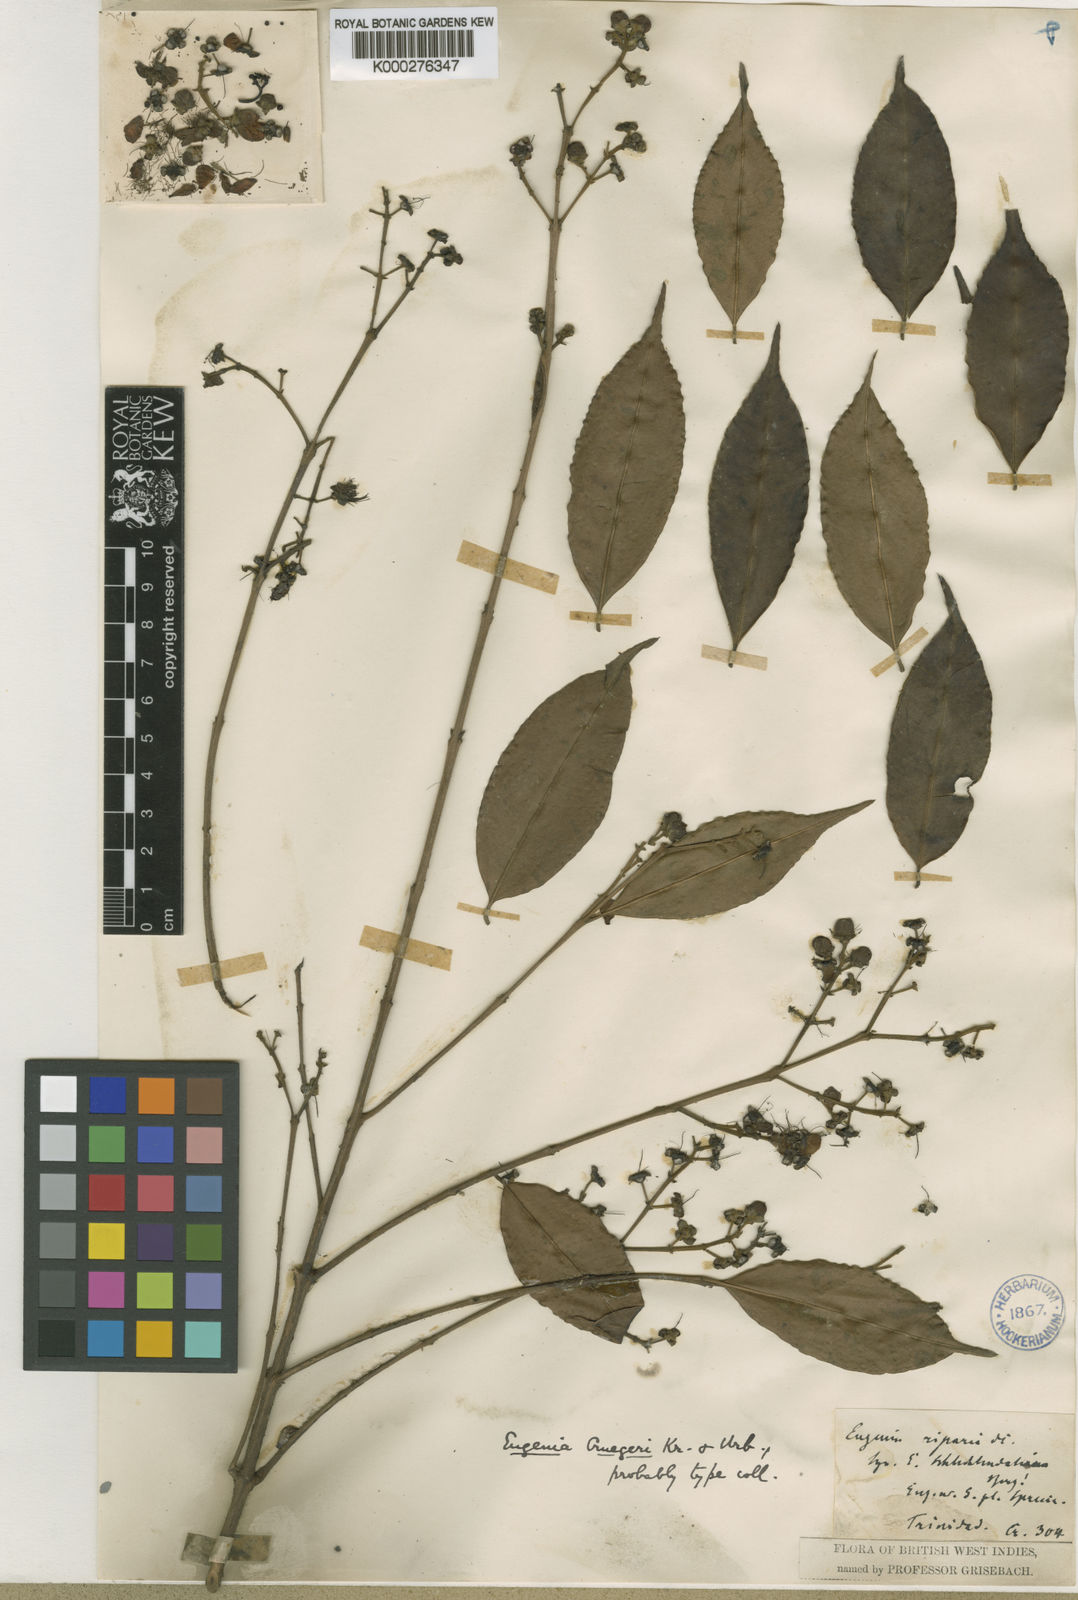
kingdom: Plantae
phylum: Tracheophyta
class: Magnoliopsida
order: Myrtales
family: Myrtaceae
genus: Eugenia
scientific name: Eugenia
